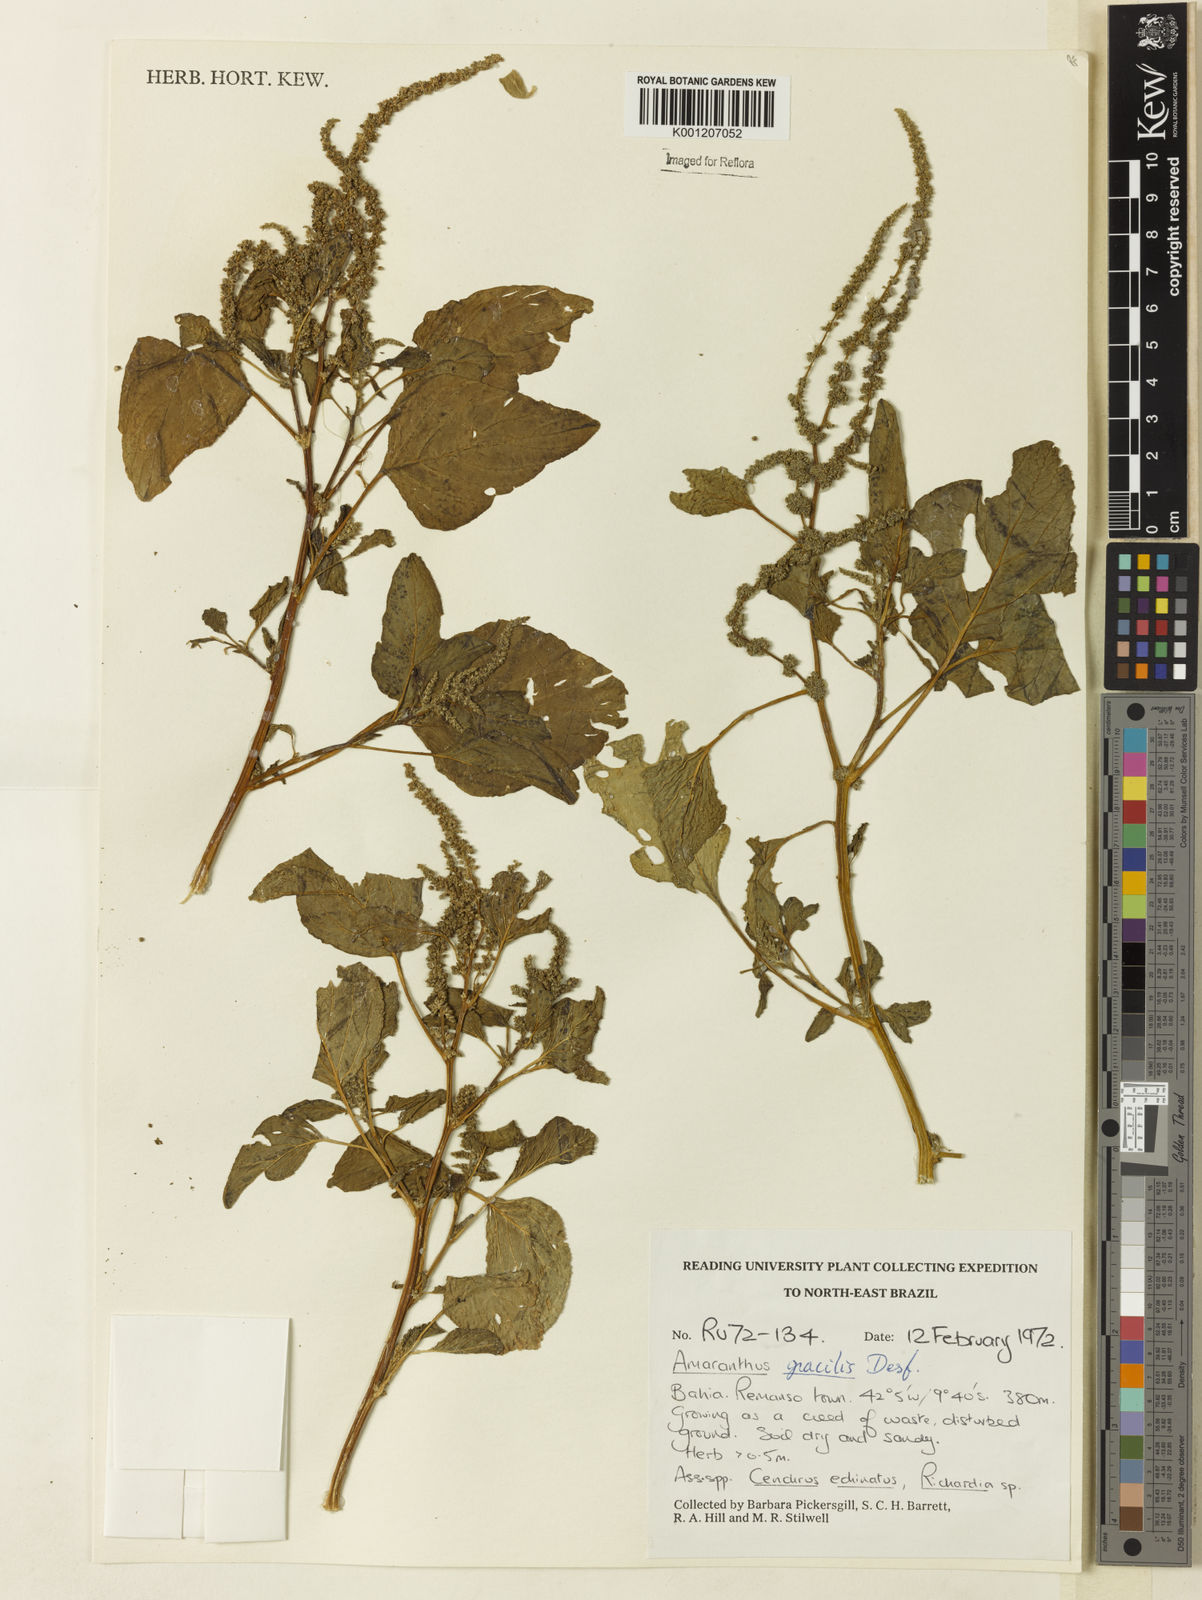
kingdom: Plantae
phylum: Tracheophyta
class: Magnoliopsida
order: Caryophyllales
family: Amaranthaceae
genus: Amaranthus
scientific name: Amaranthus
